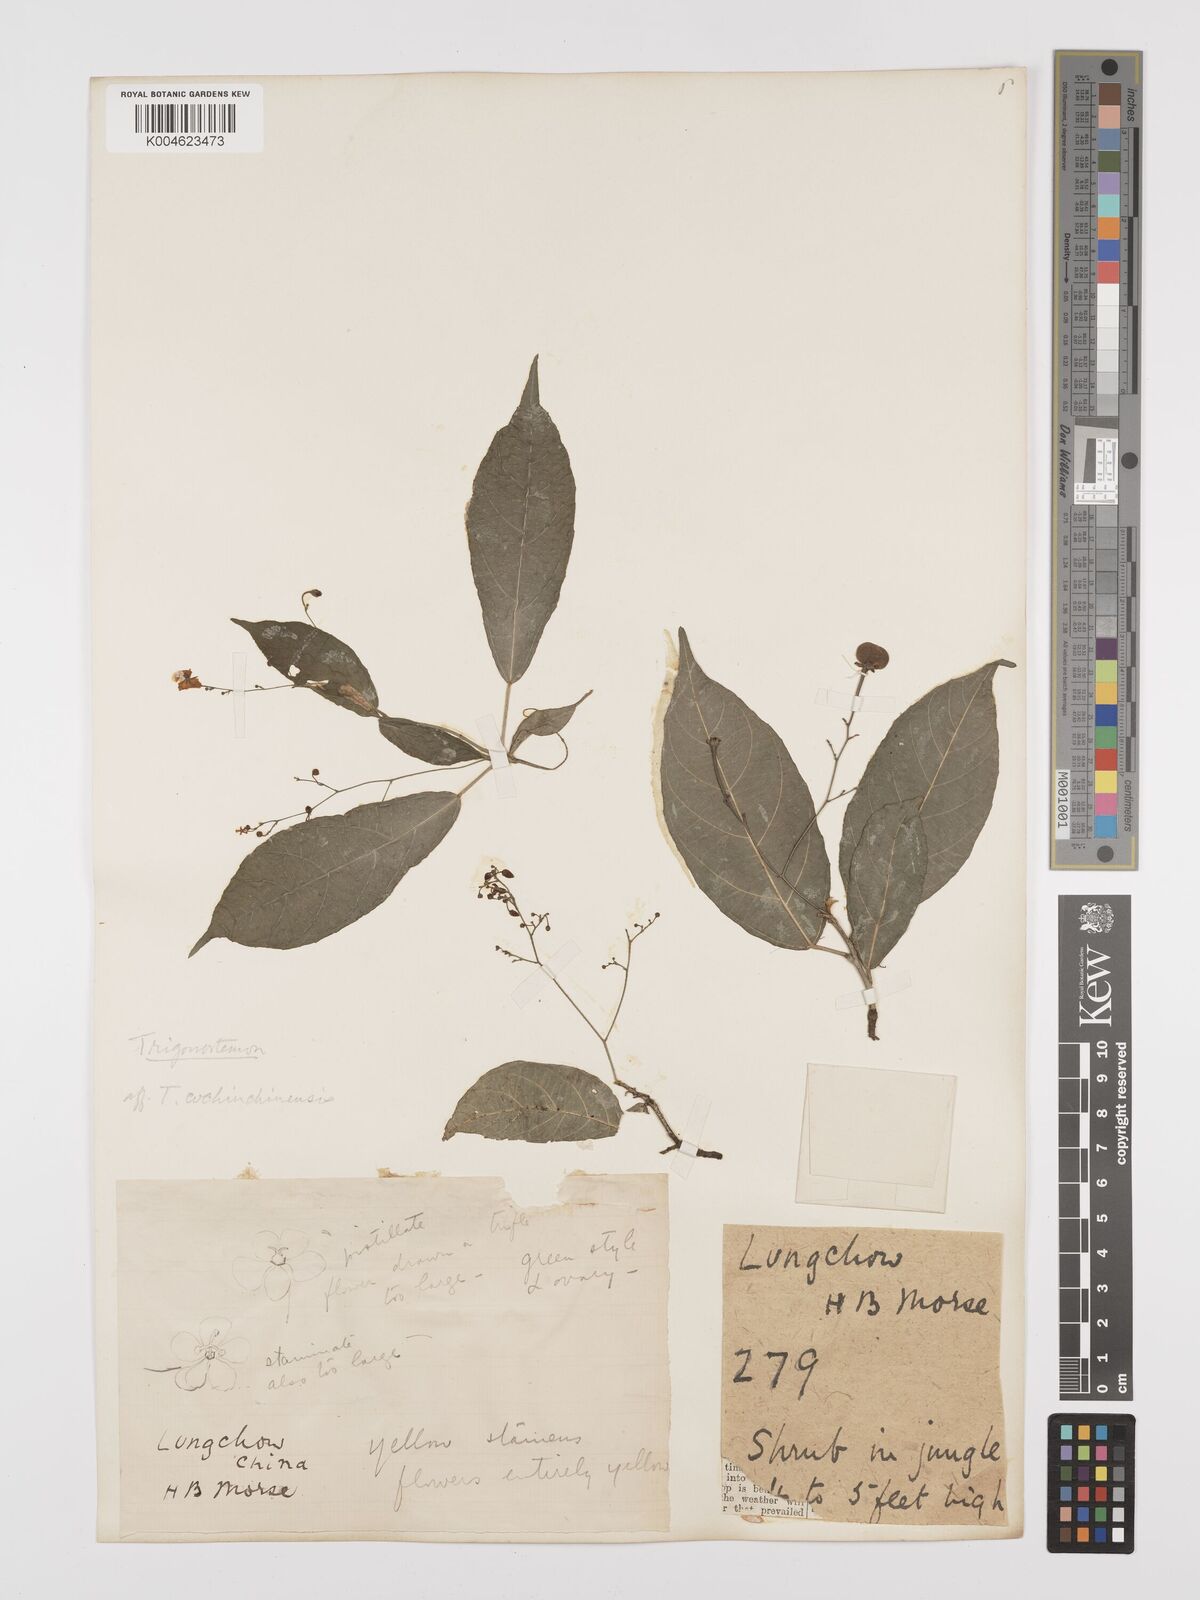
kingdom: Plantae
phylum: Tracheophyta
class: Magnoliopsida
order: Malpighiales
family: Euphorbiaceae
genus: Trigonostemon
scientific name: Trigonostemon viridissimus
